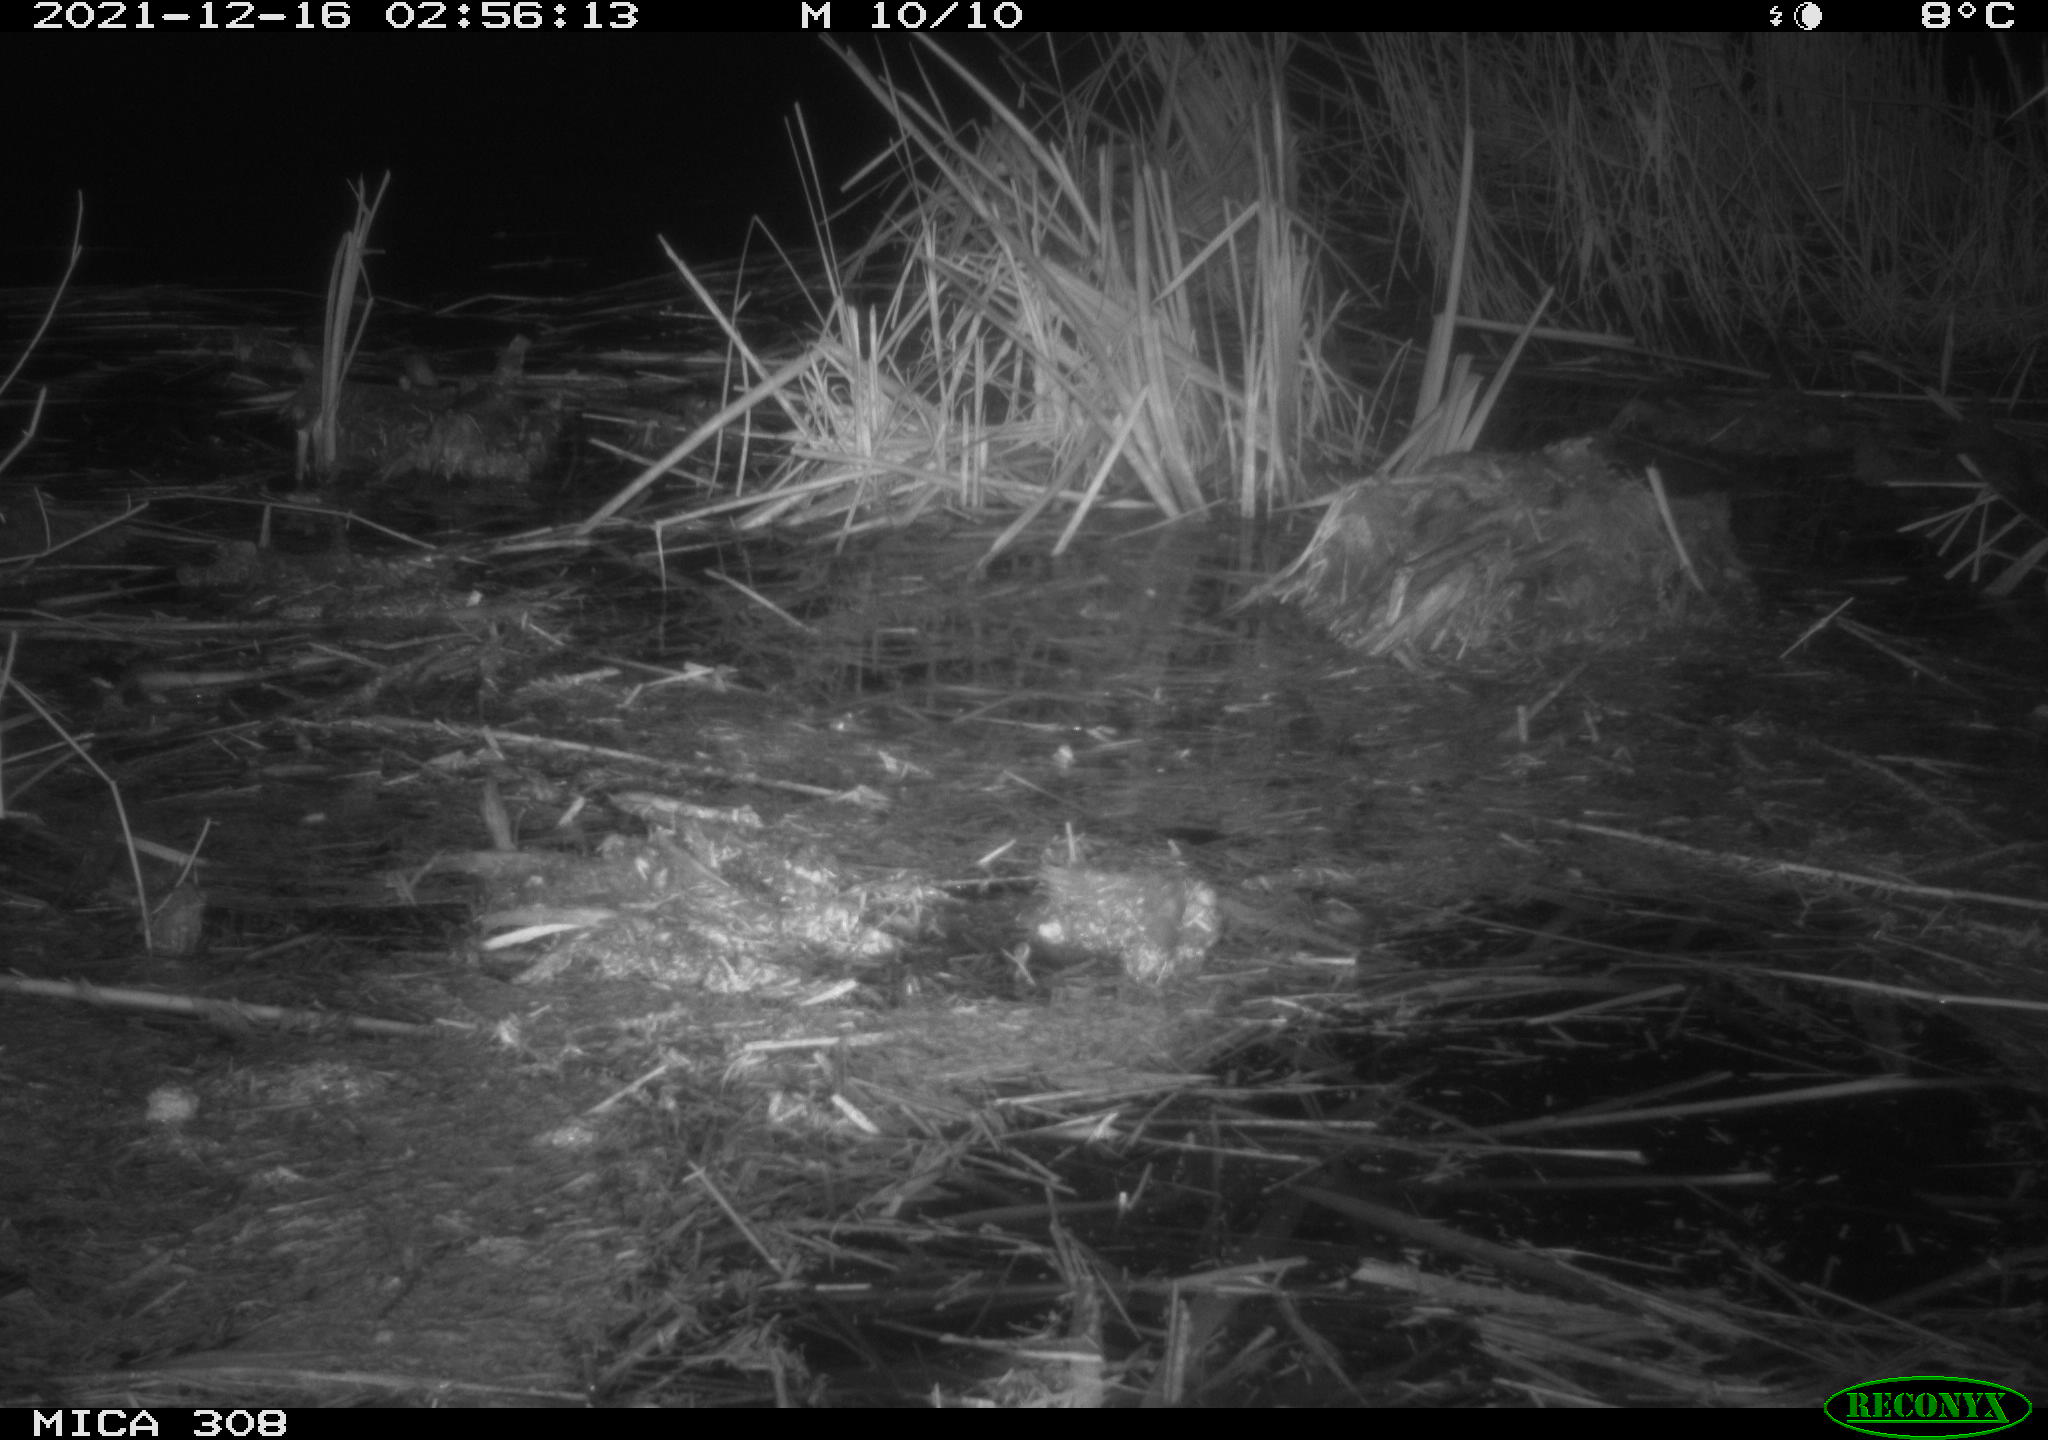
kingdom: Animalia
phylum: Chordata
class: Mammalia
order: Rodentia
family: Muridae
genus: Rattus
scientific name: Rattus norvegicus
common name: Brown rat
